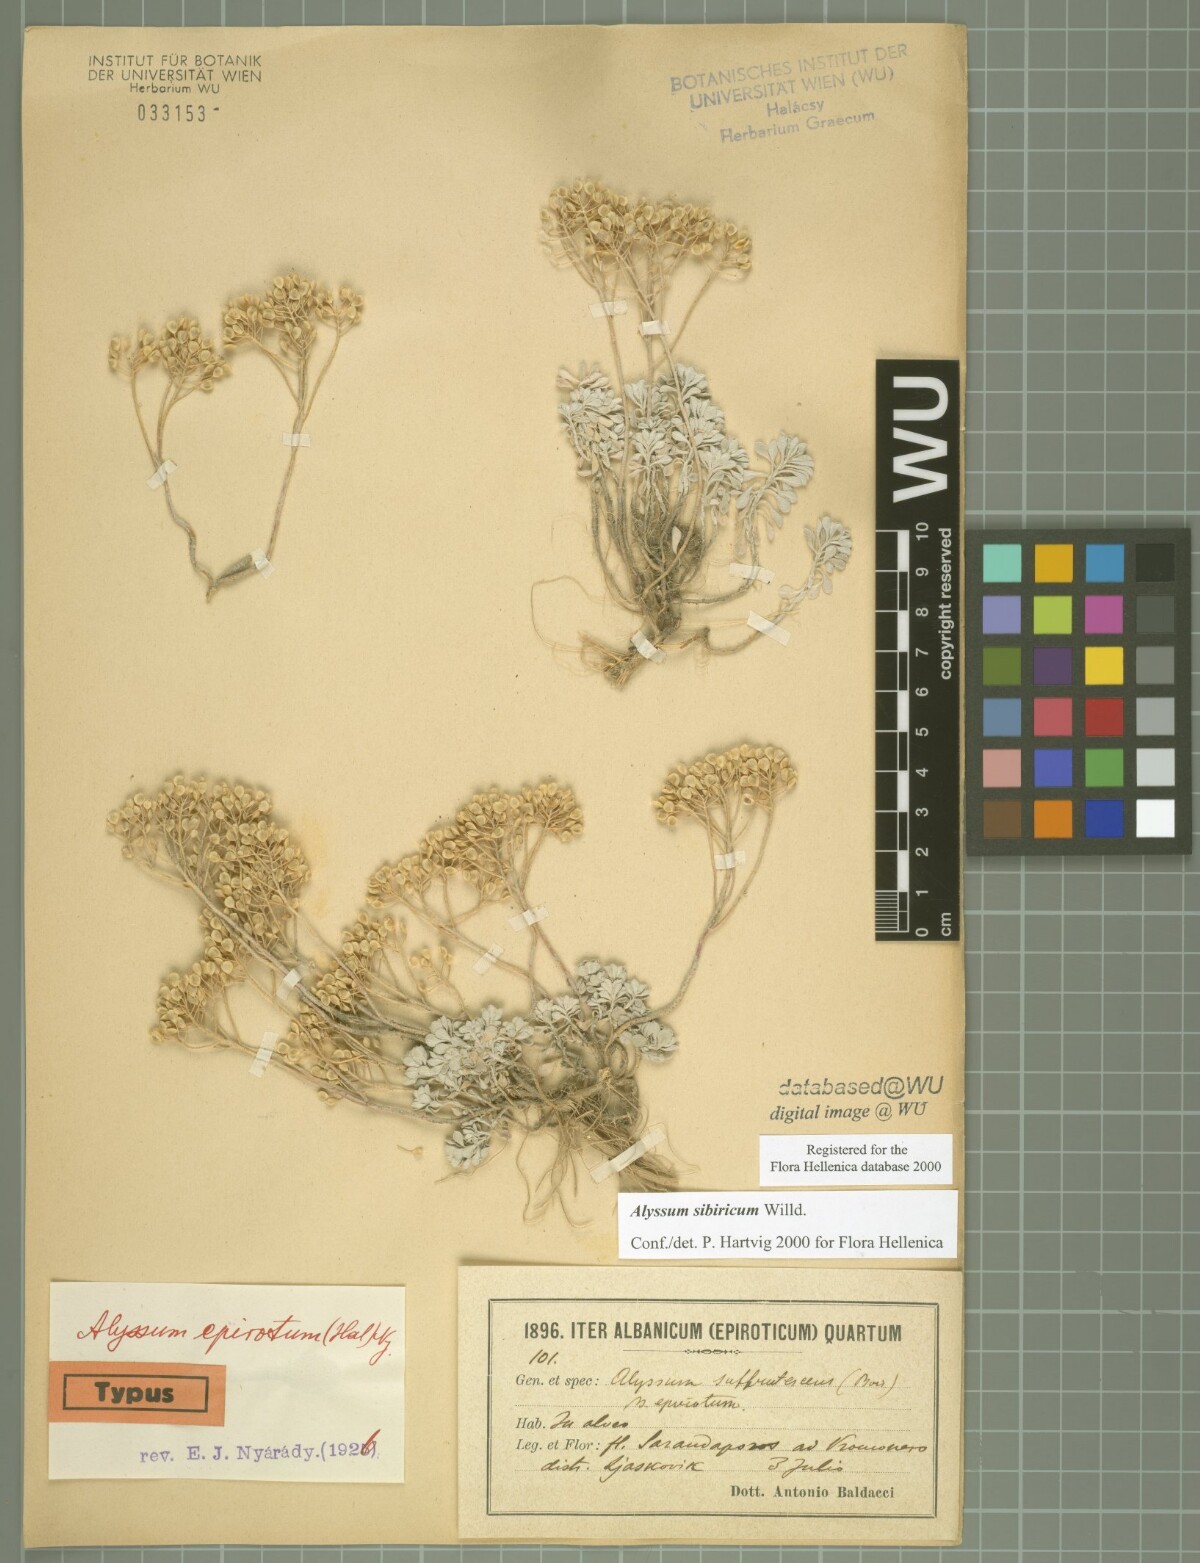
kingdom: Plantae
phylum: Tracheophyta
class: Magnoliopsida
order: Brassicales
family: Brassicaceae
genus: Odontarrhena
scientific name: Odontarrhena sibirica
